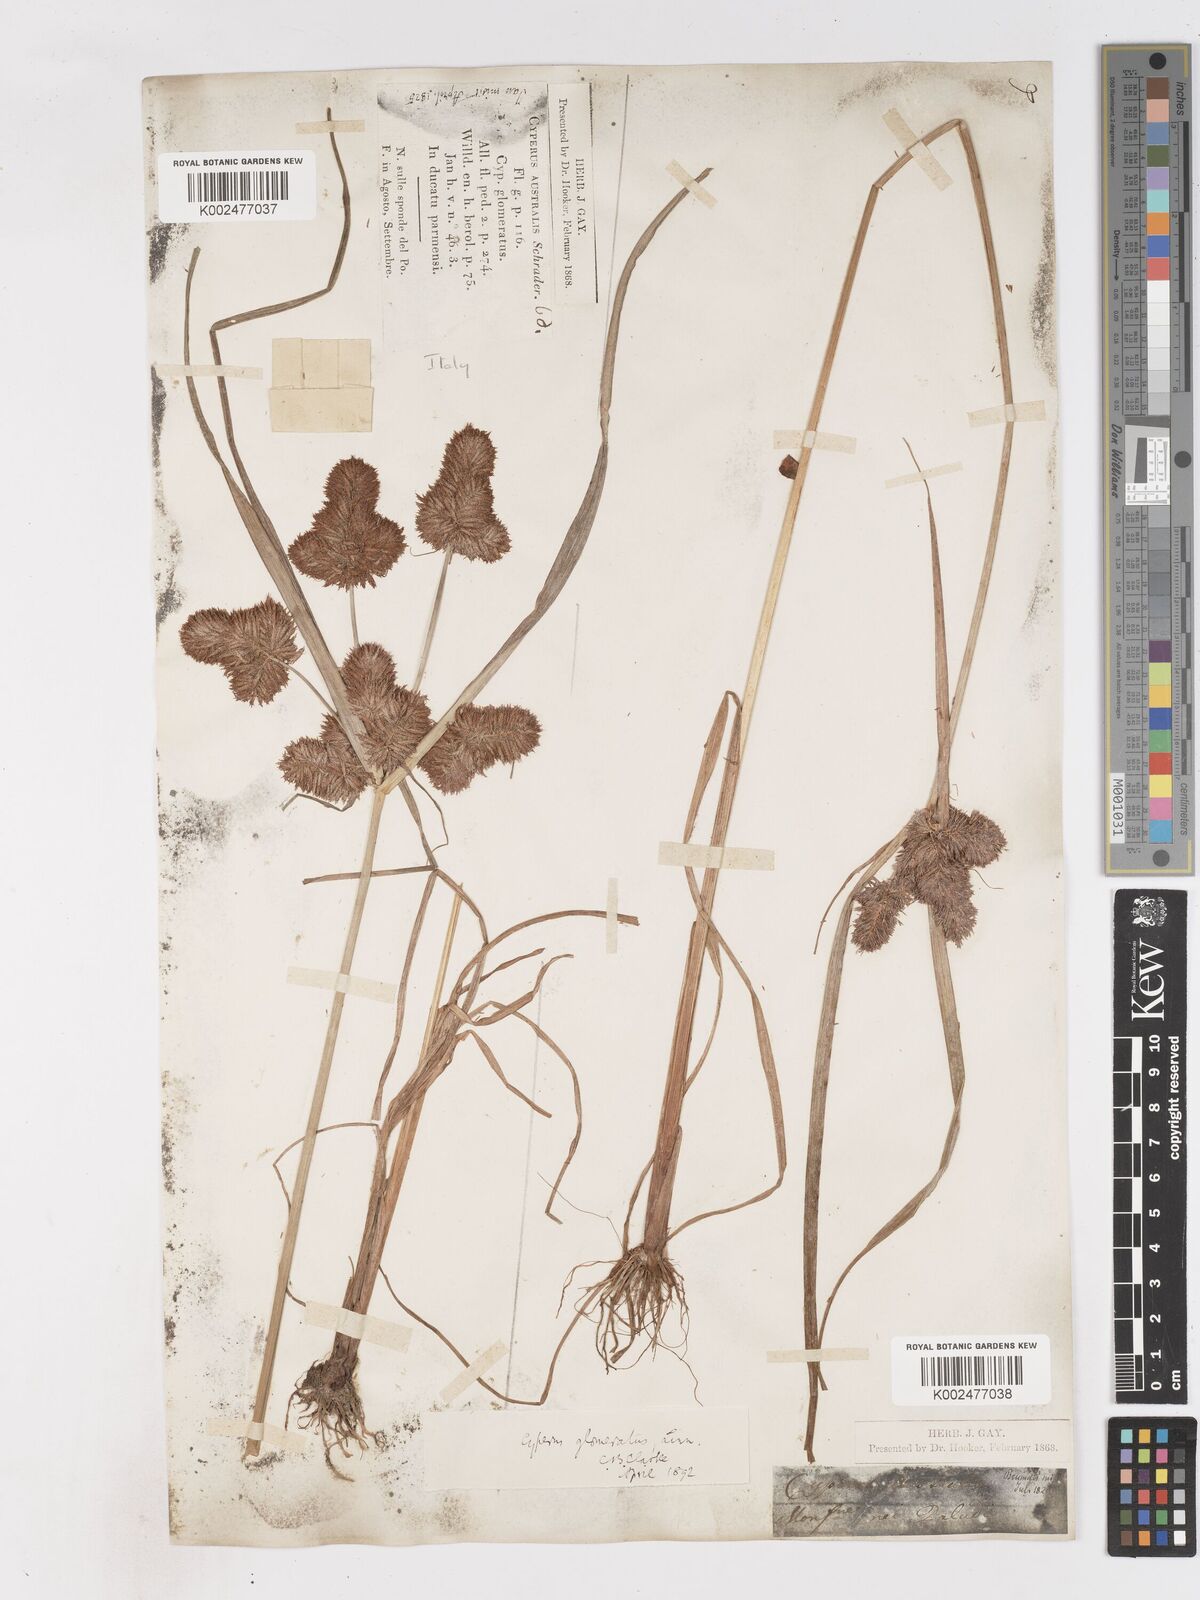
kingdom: Plantae
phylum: Tracheophyta
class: Liliopsida
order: Poales
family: Cyperaceae
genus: Cyperus
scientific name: Cyperus glomeratus
